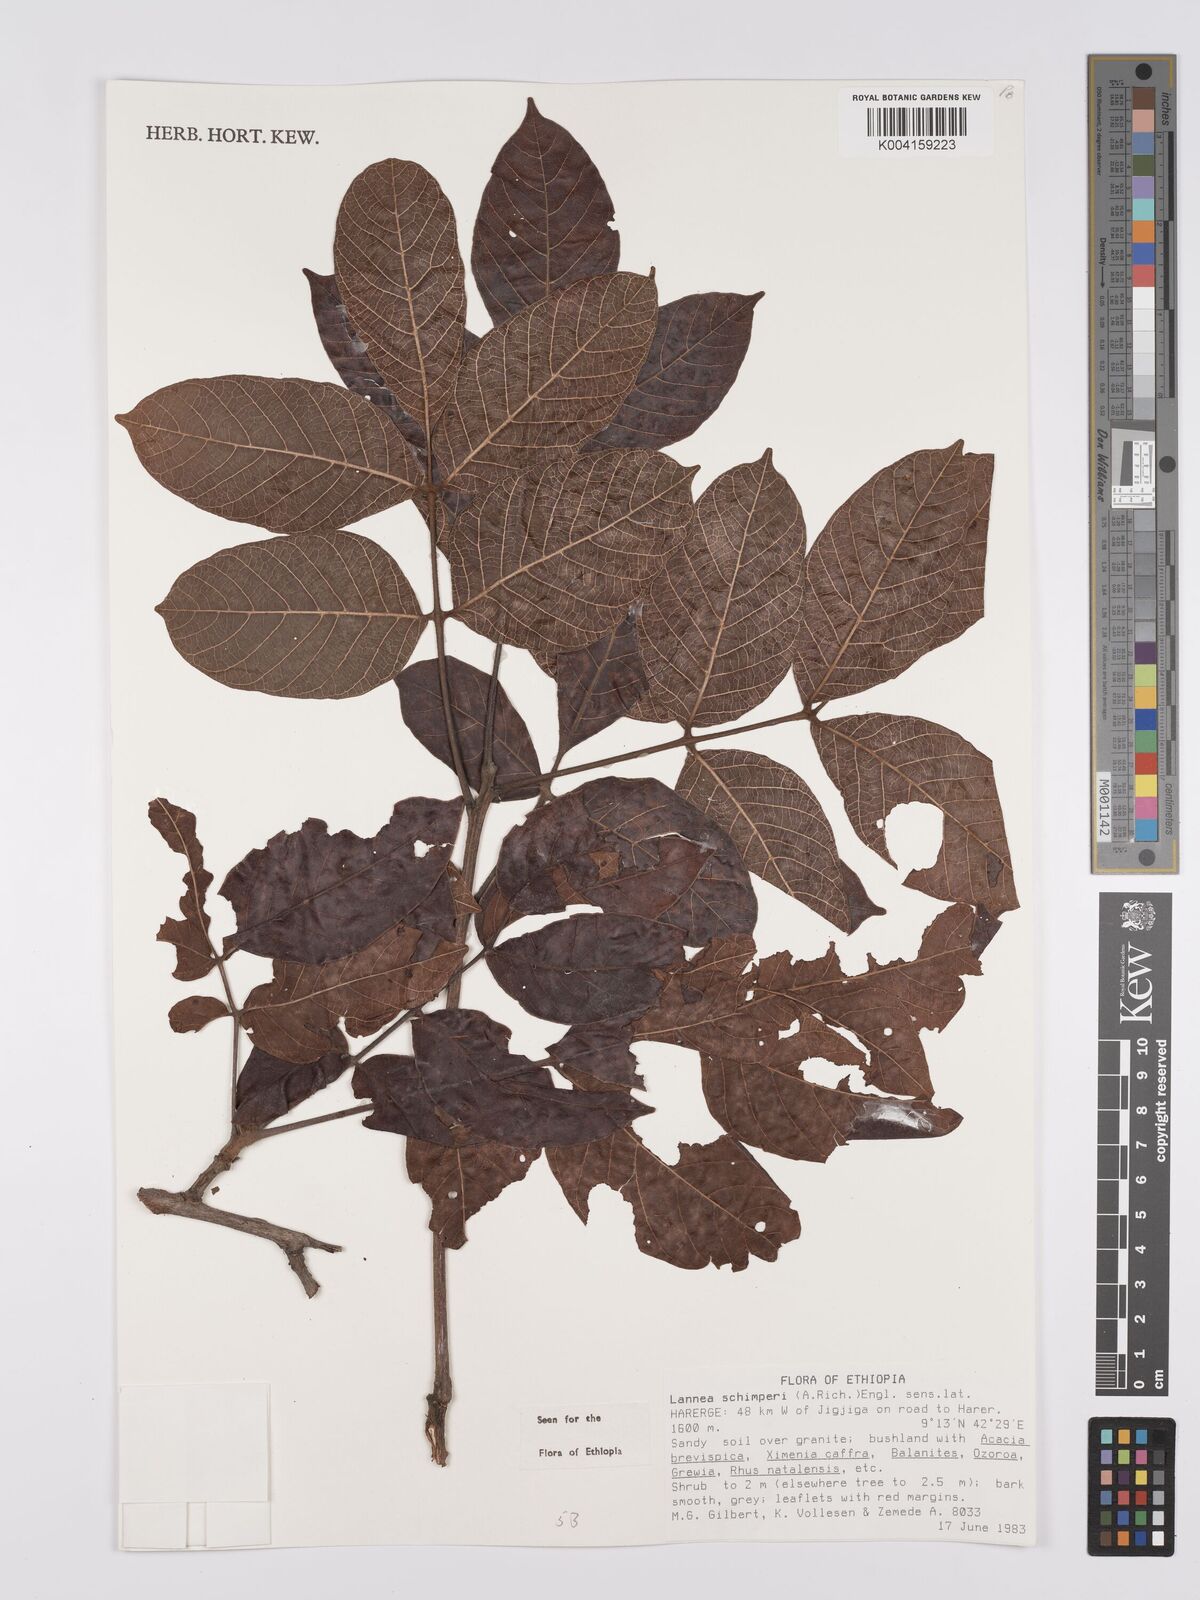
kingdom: Plantae
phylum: Tracheophyta
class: Magnoliopsida
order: Sapindales
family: Anacardiaceae
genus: Lannea
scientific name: Lannea schimperi
